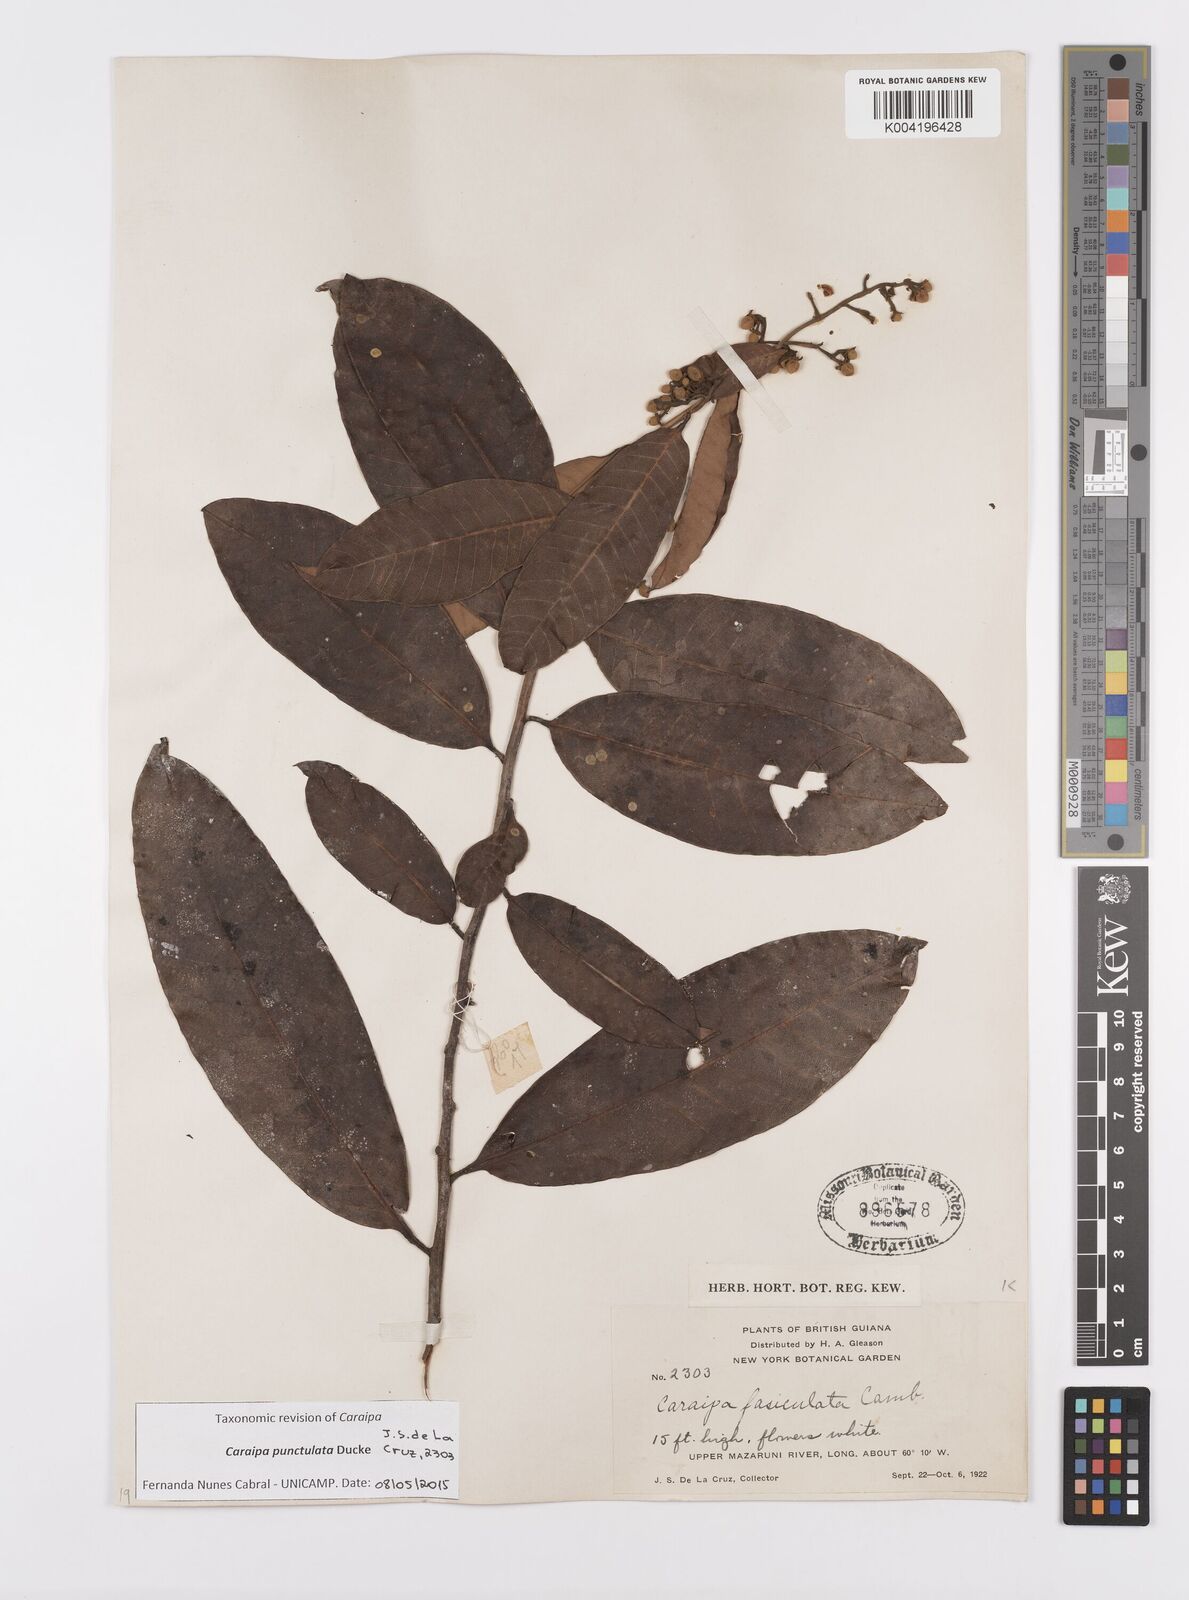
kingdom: Plantae
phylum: Tracheophyta
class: Magnoliopsida
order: Malpighiales
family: Calophyllaceae
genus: Caraipa
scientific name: Caraipa punctulata
